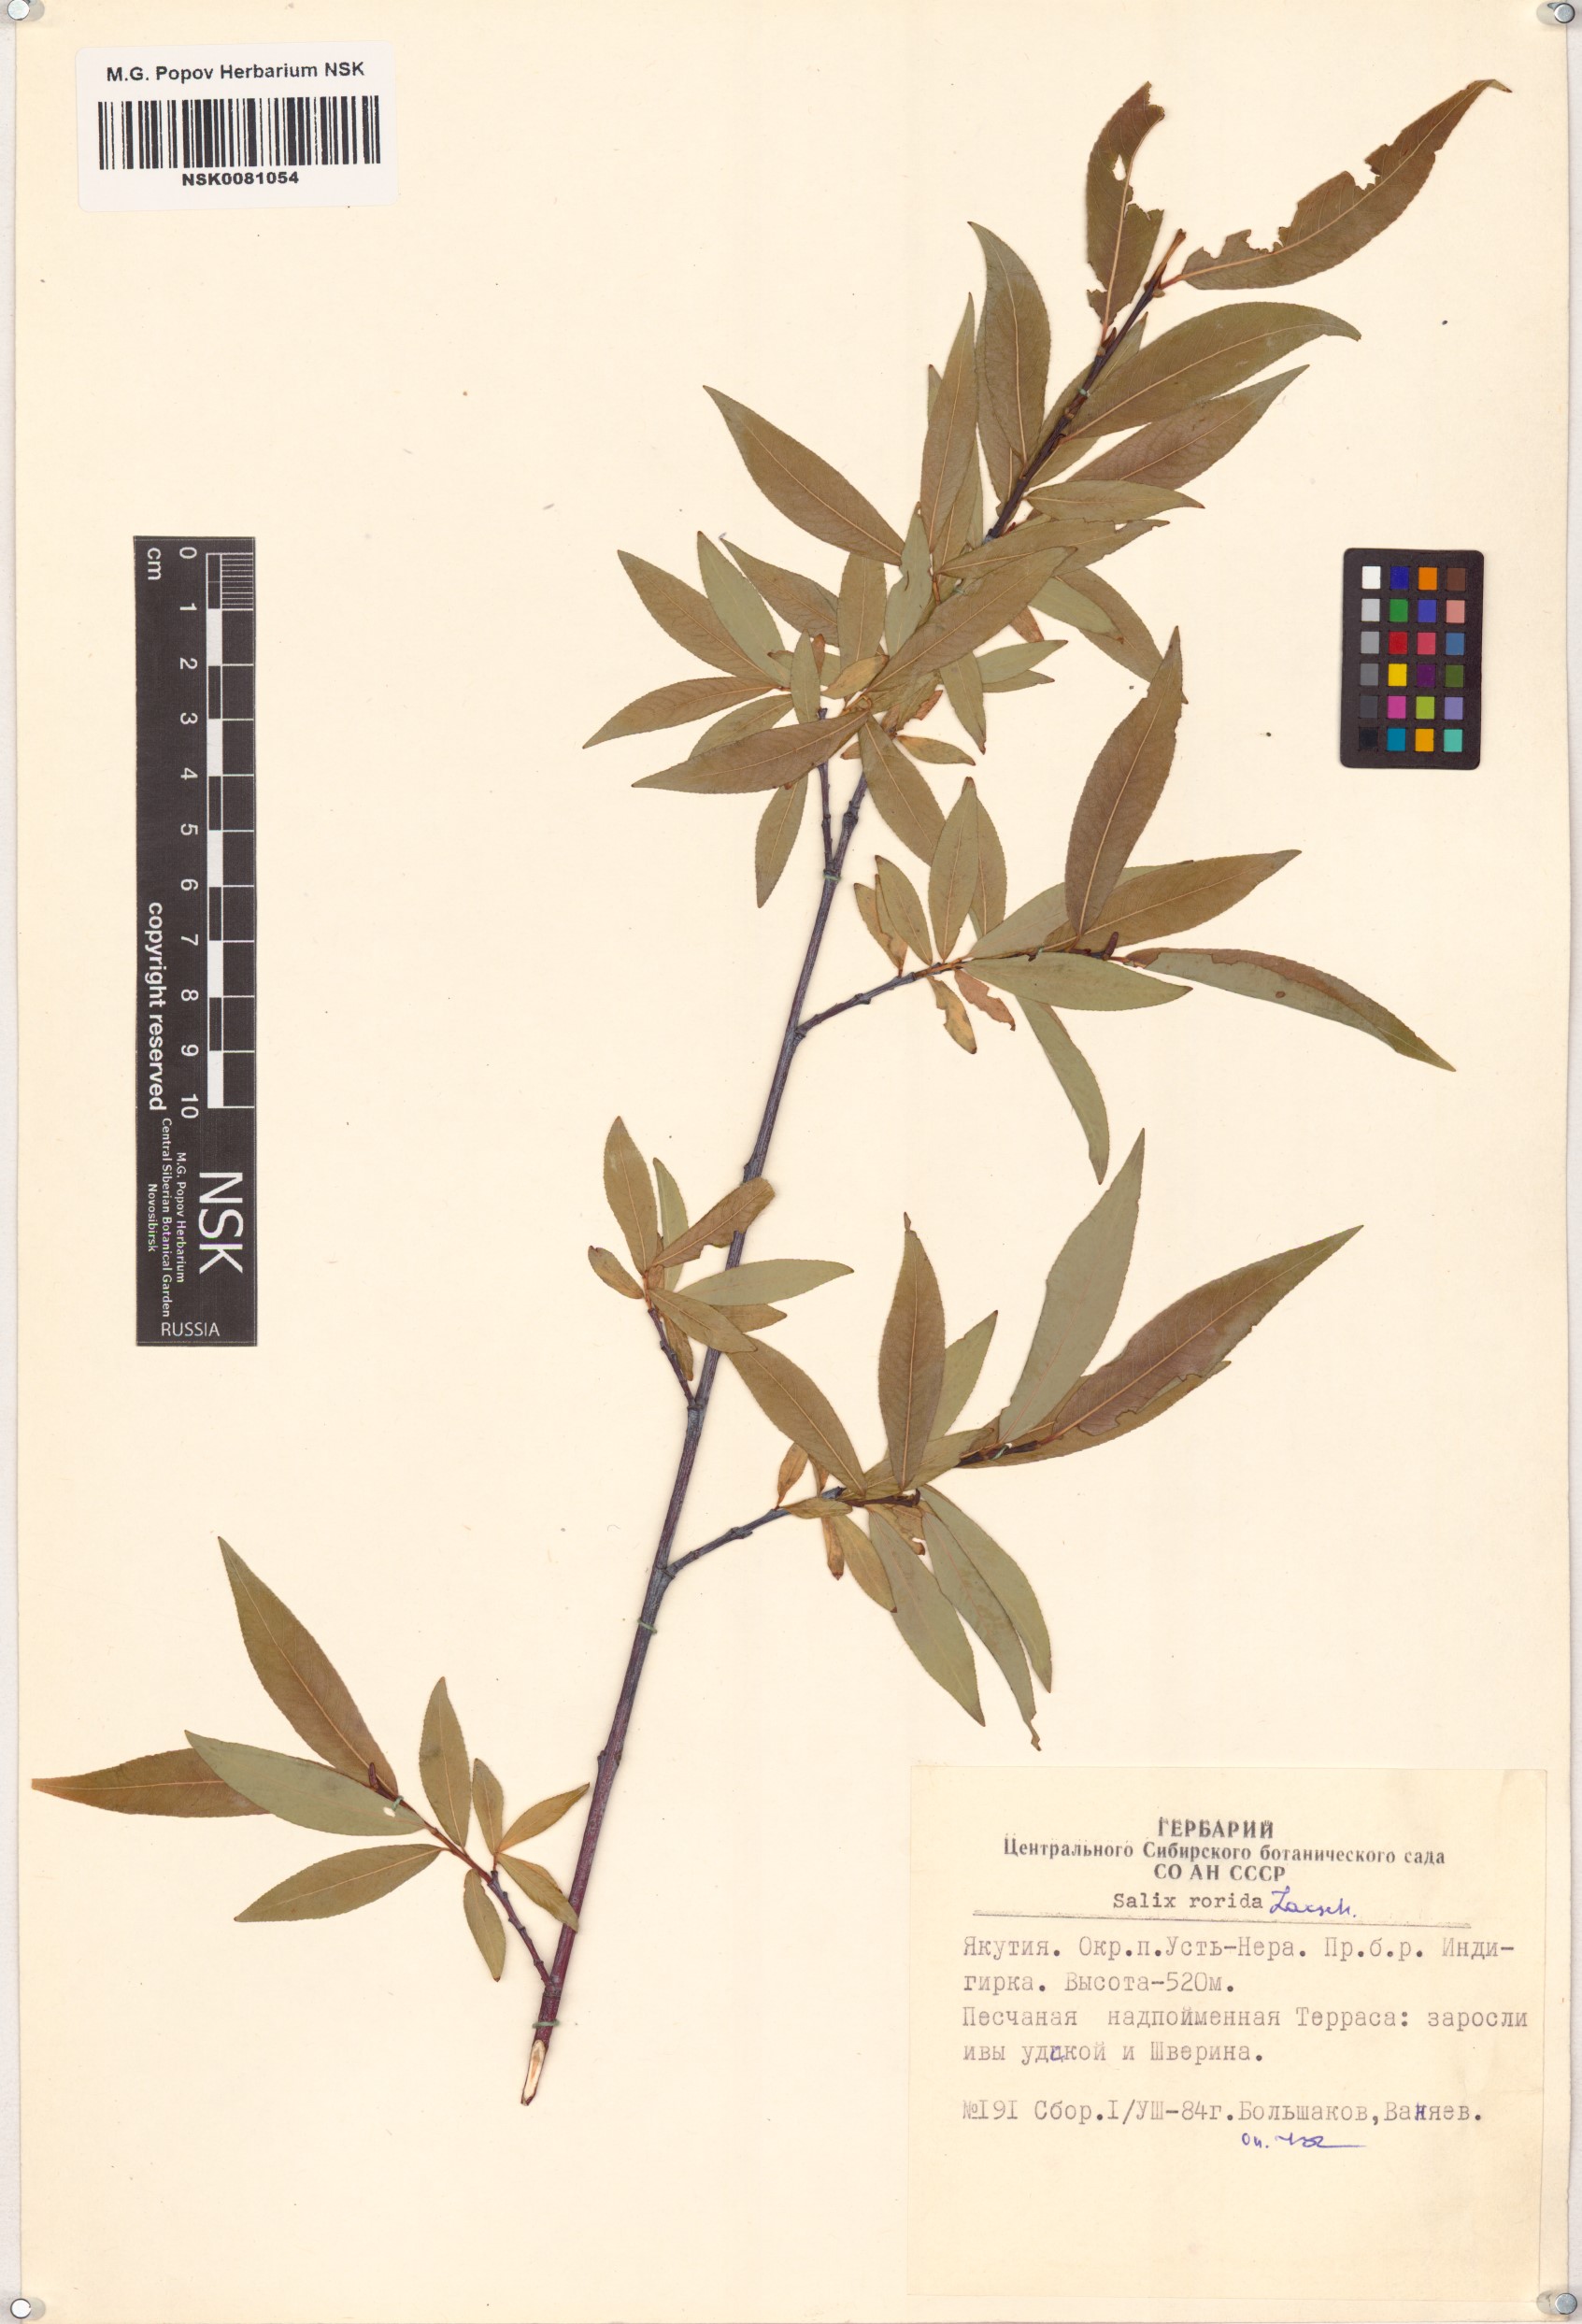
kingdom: Plantae
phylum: Tracheophyta
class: Magnoliopsida
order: Malpighiales
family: Salicaceae
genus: Salix
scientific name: Salix rorida
